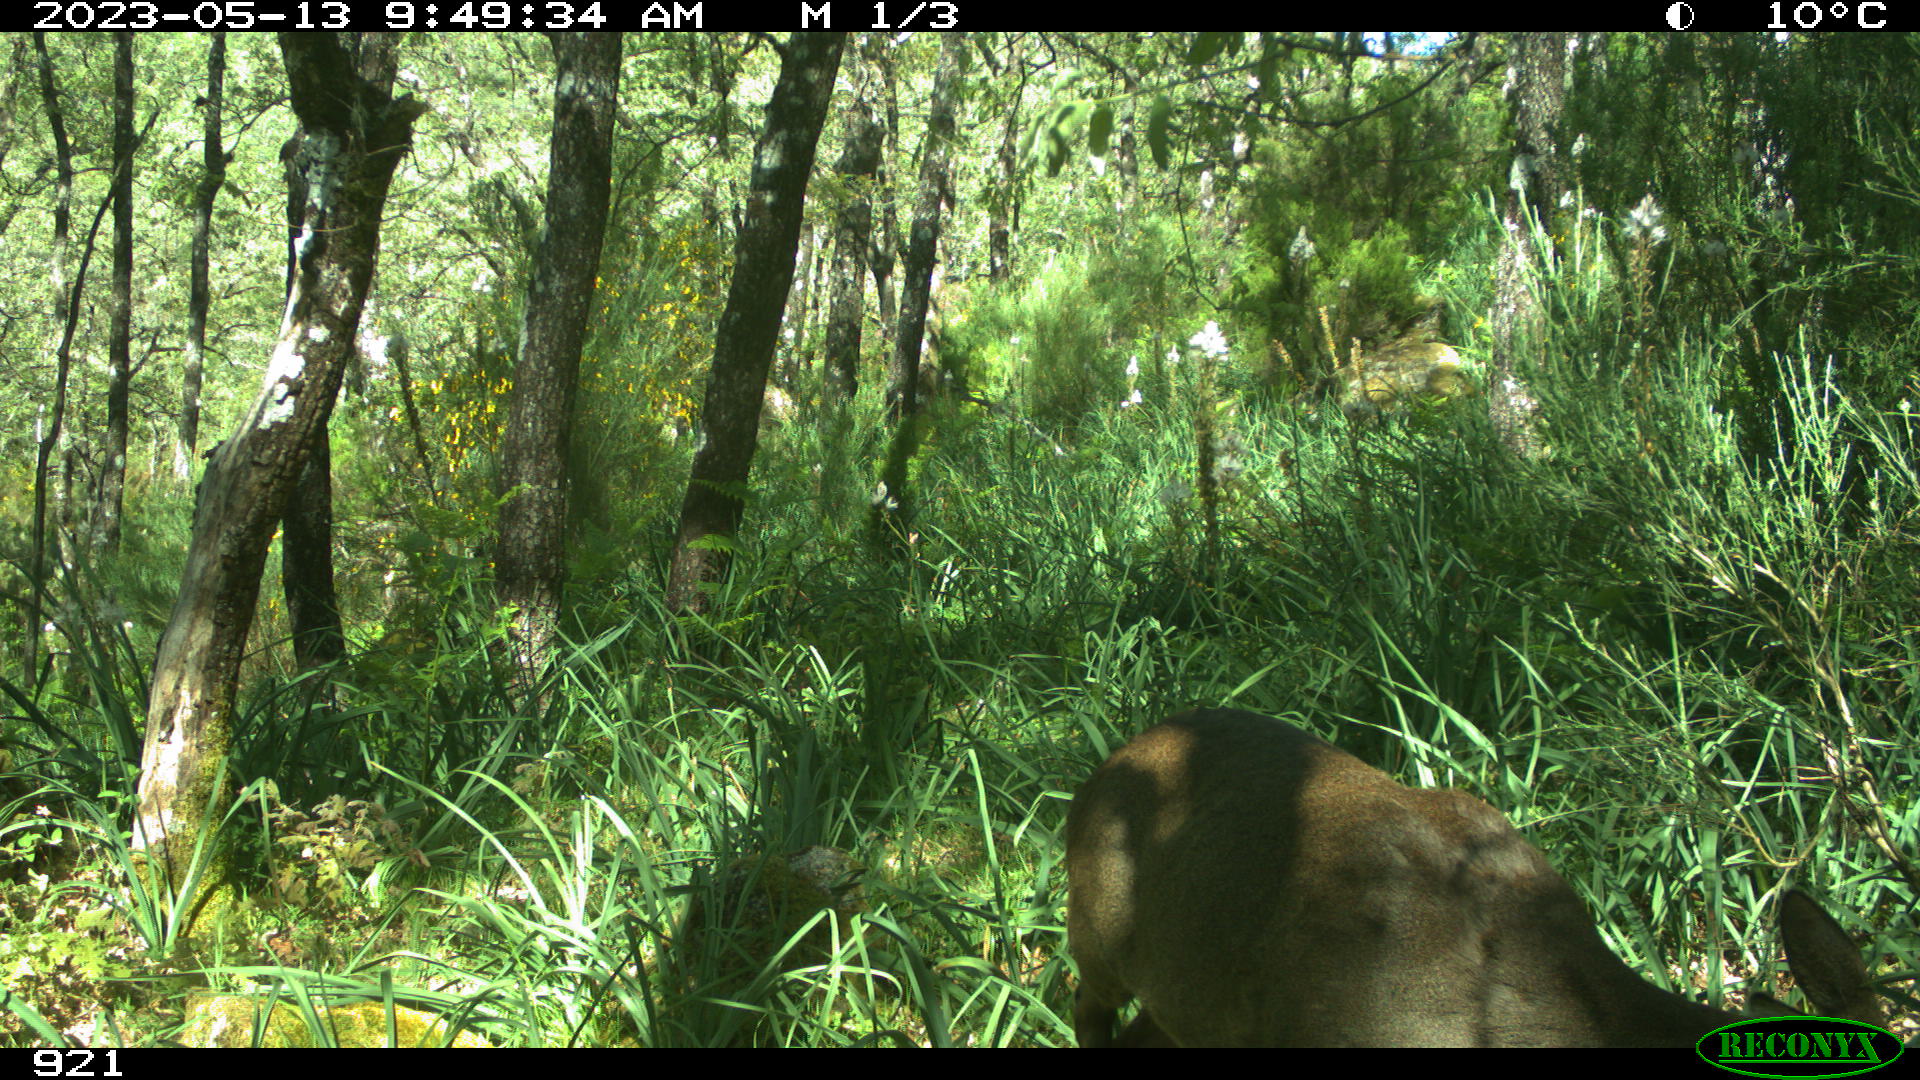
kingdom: Animalia
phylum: Chordata
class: Mammalia
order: Artiodactyla
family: Cervidae
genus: Capreolus
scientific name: Capreolus capreolus
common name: Western roe deer
